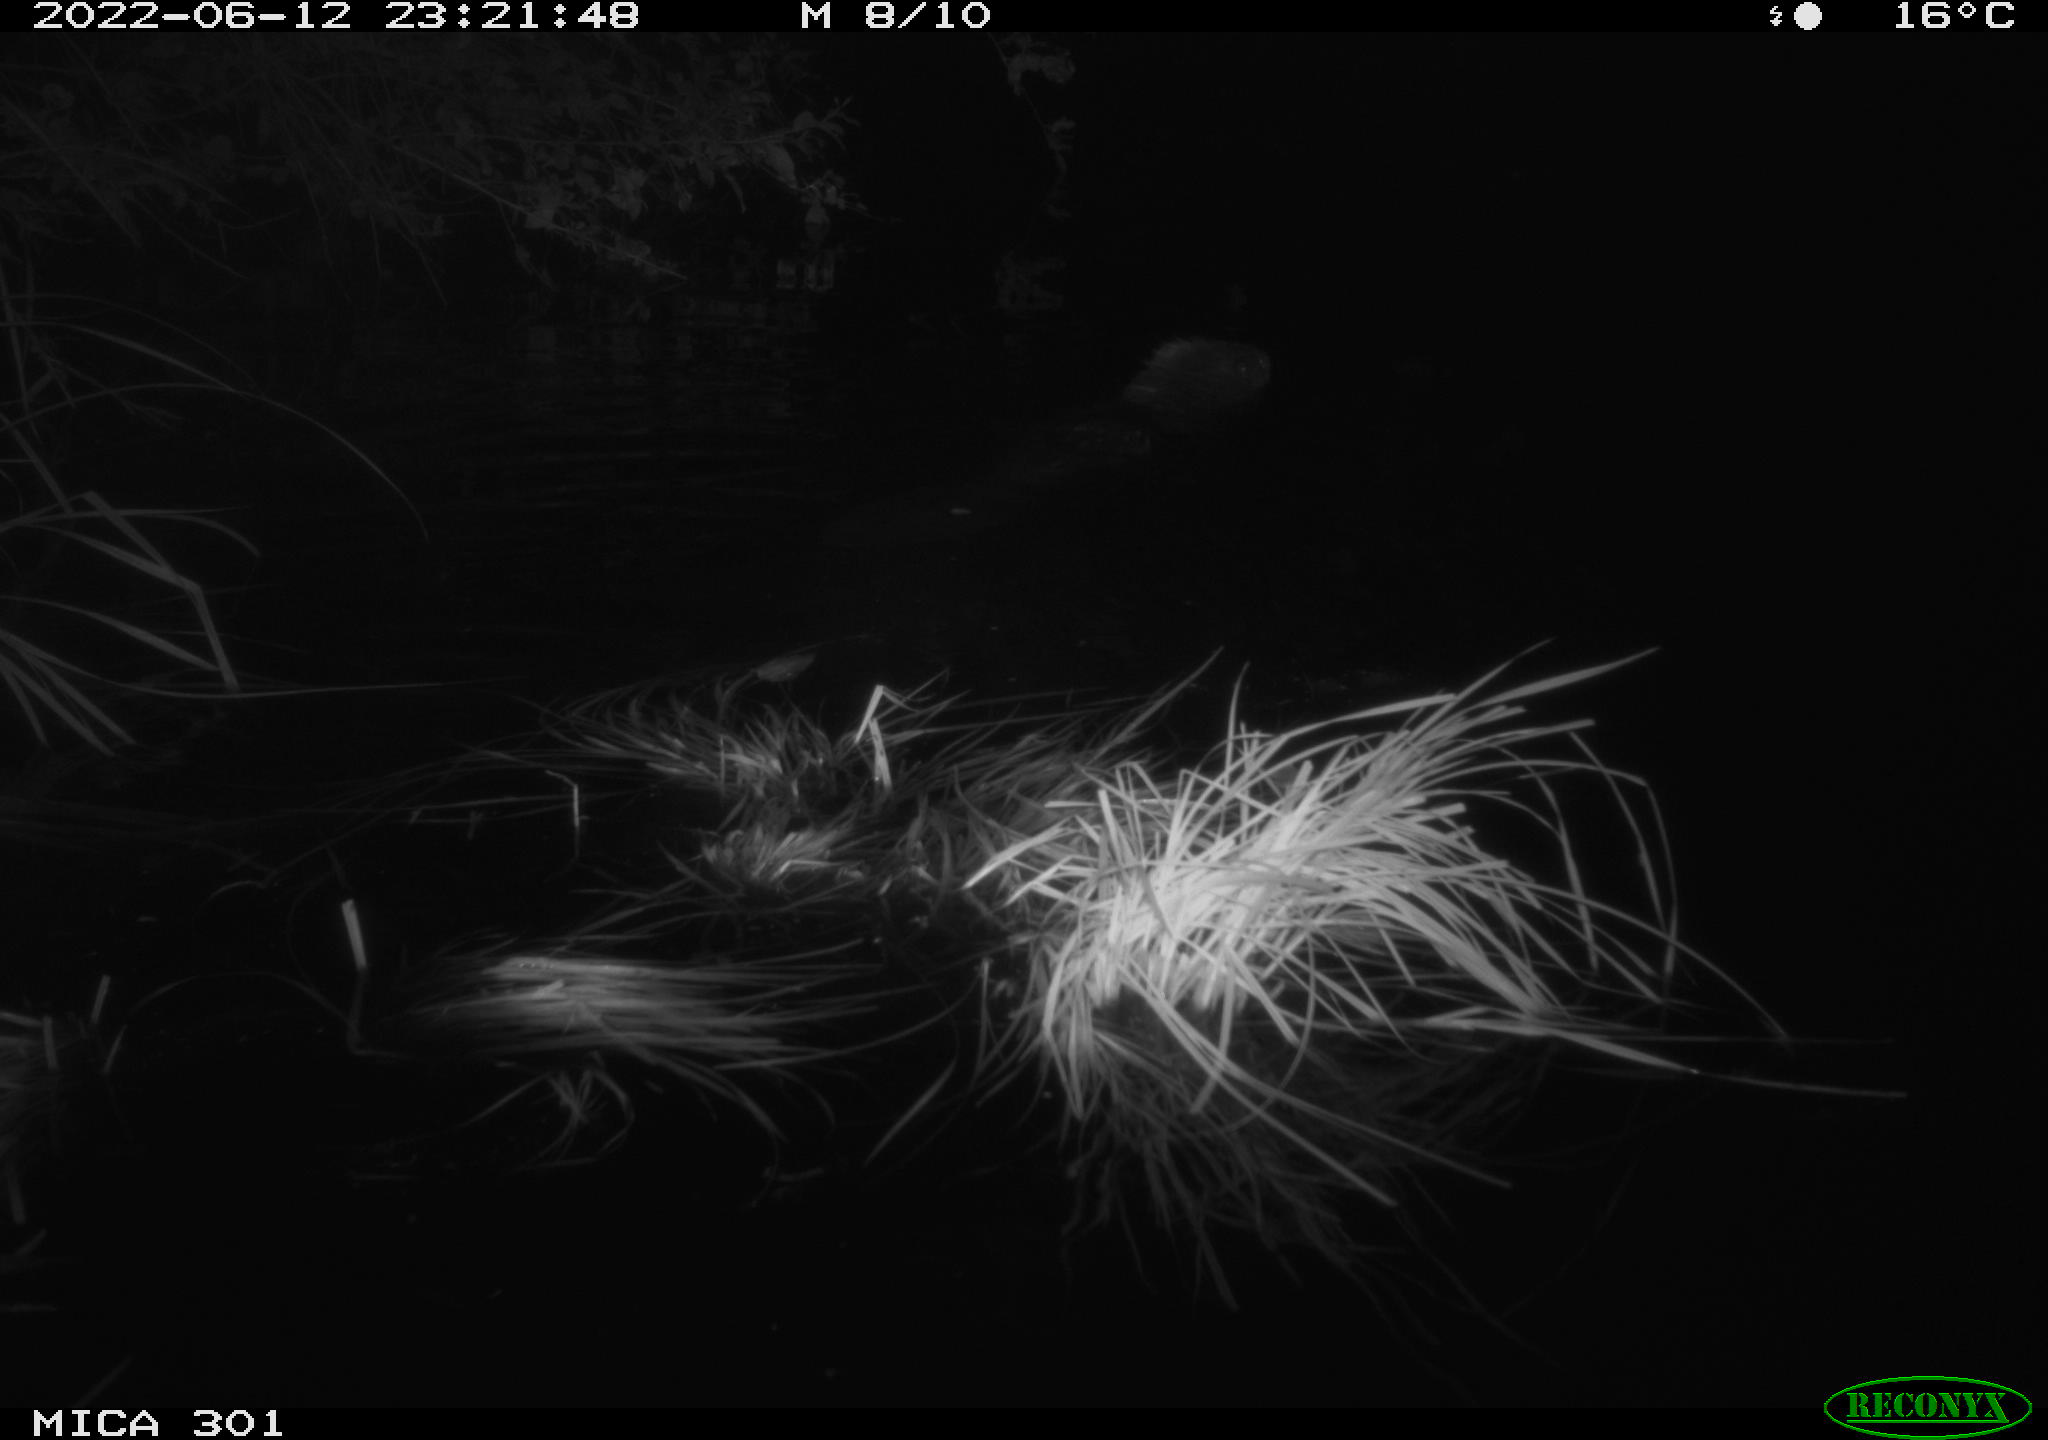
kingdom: Animalia
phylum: Chordata
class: Mammalia
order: Rodentia
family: Castoridae
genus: Castor
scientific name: Castor fiber
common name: Eurasian beaver
